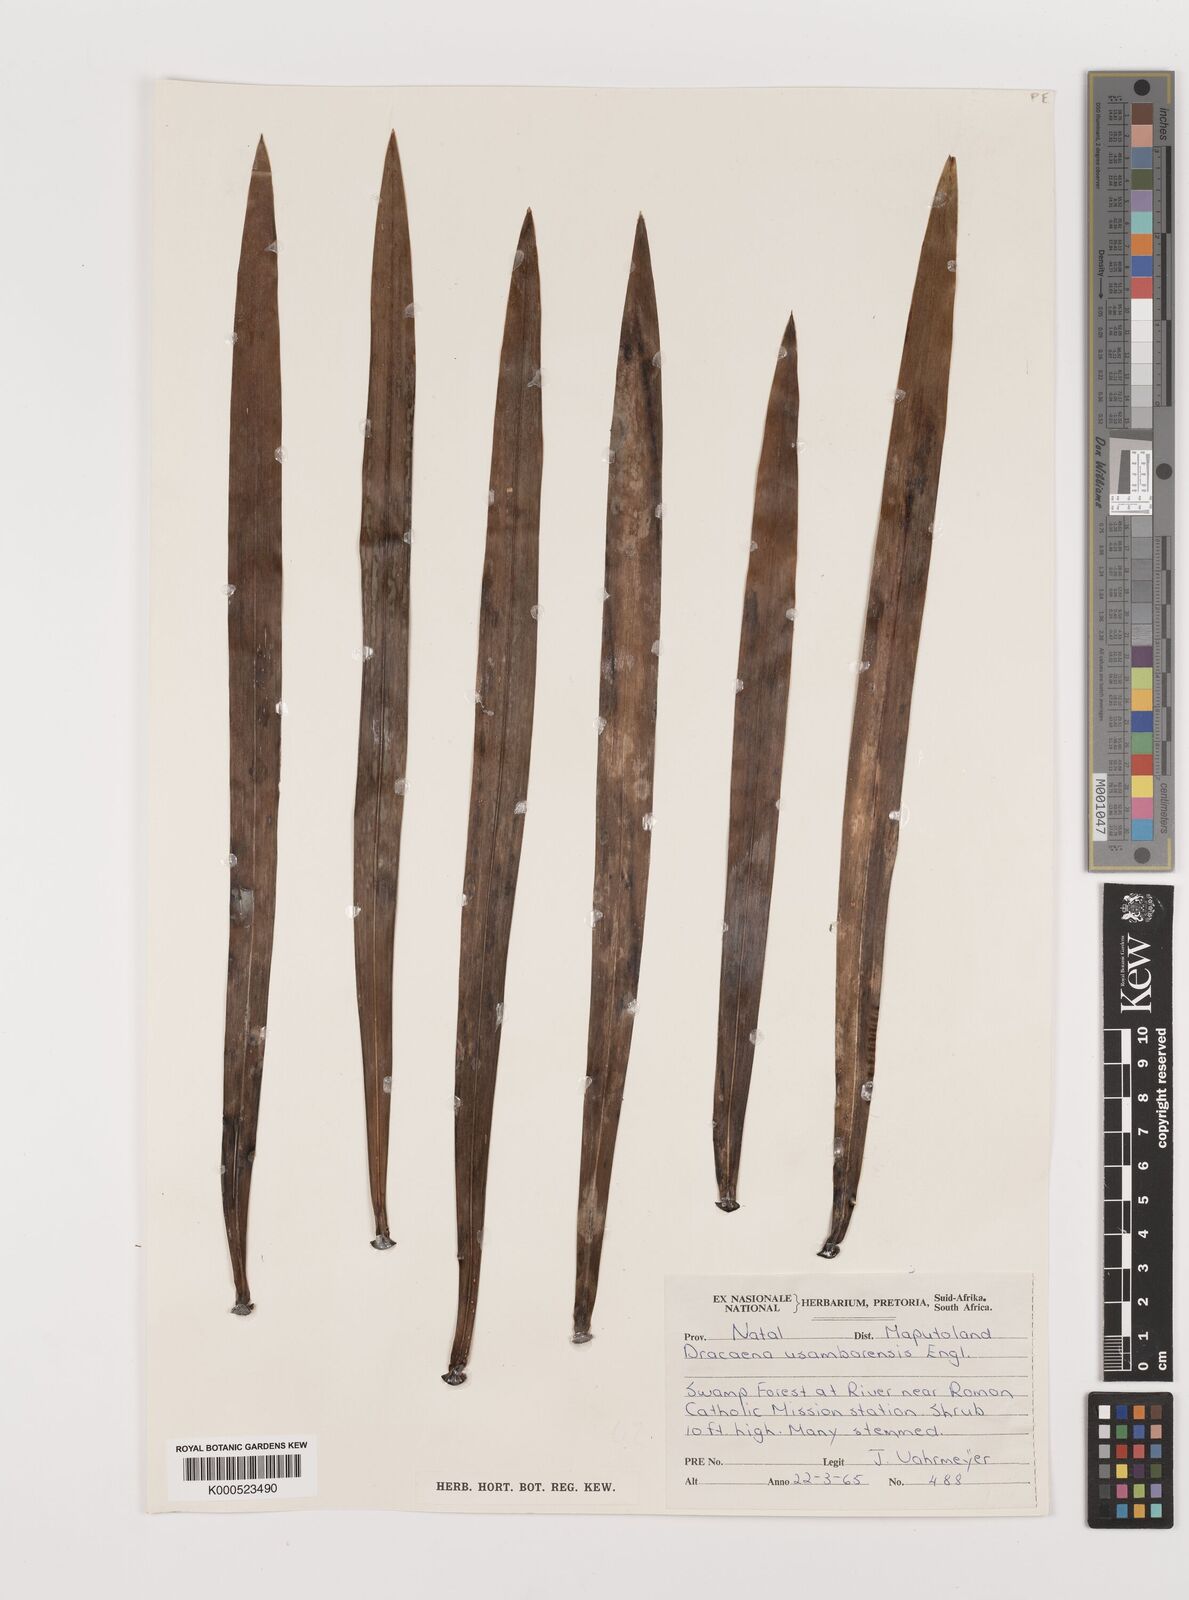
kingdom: Plantae
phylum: Tracheophyta
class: Liliopsida
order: Asparagales
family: Asparagaceae
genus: Dracaena
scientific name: Dracaena usambarensis
